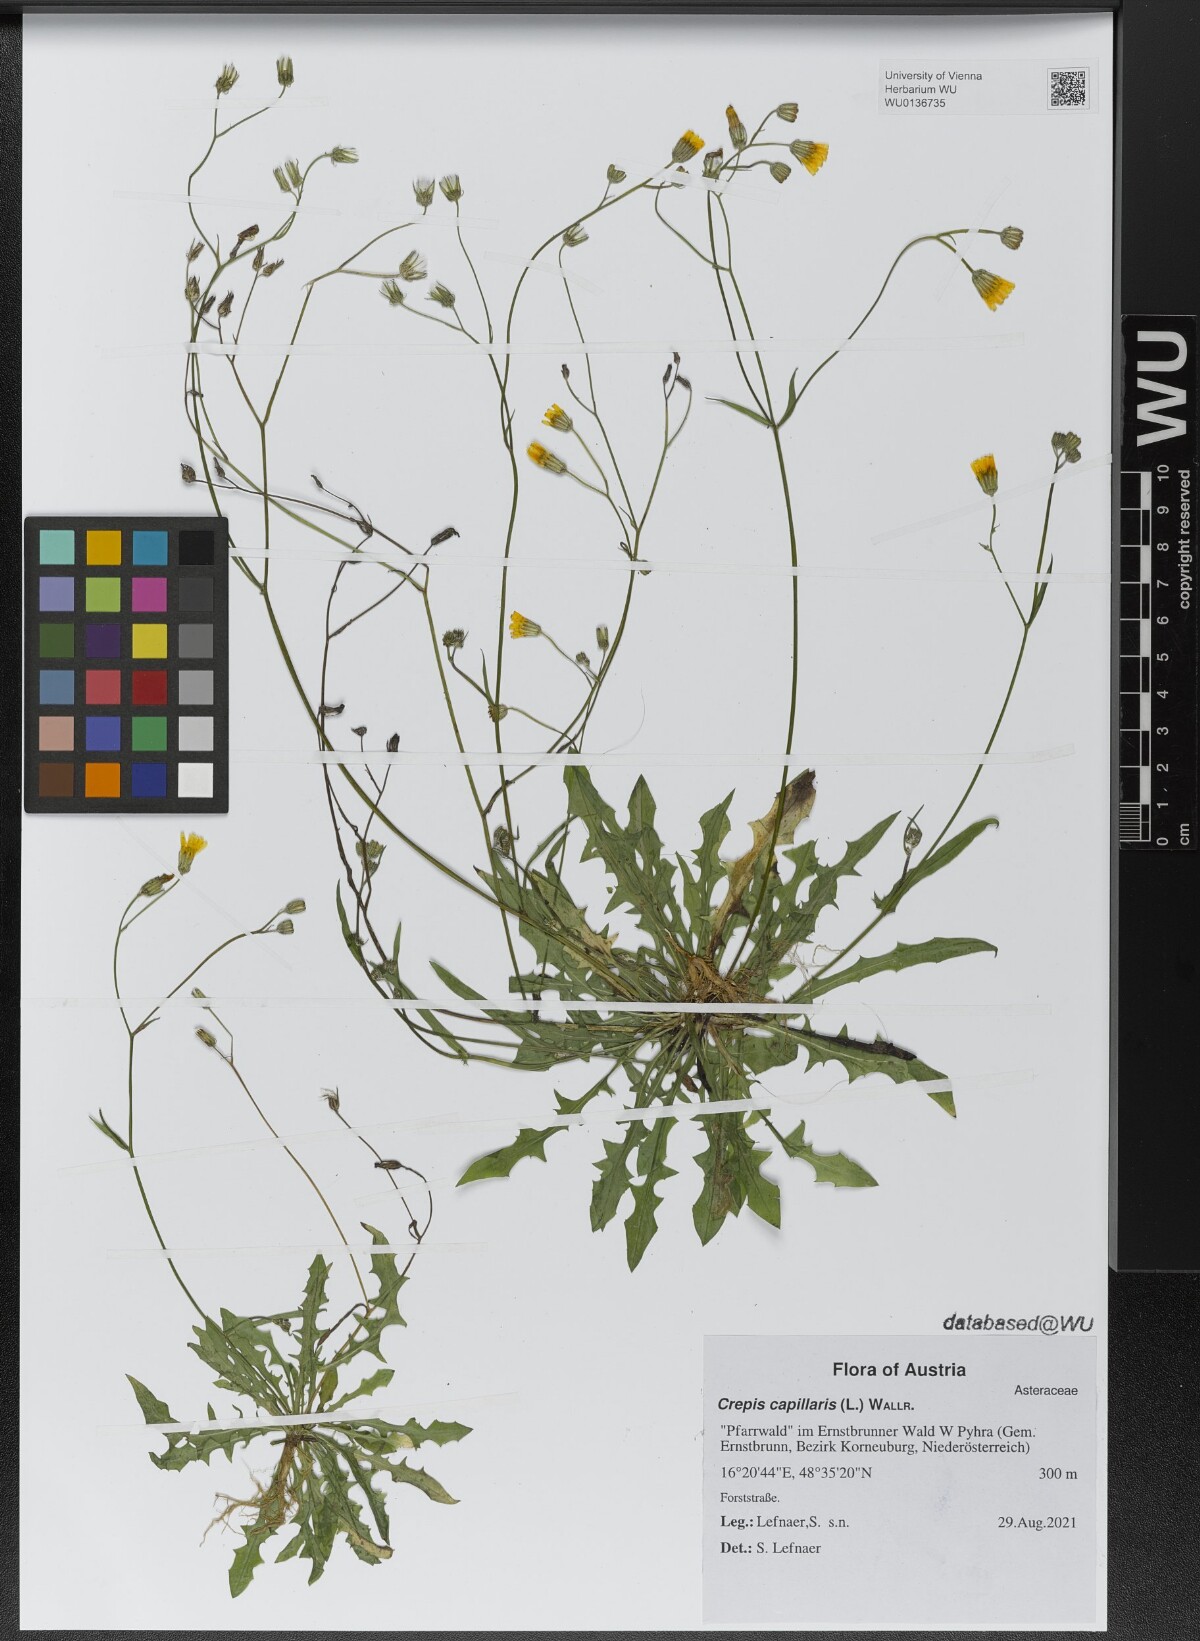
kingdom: Plantae
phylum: Tracheophyta
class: Magnoliopsida
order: Asterales
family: Asteraceae
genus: Crepis
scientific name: Crepis capillaris
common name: Smooth hawksbeard
